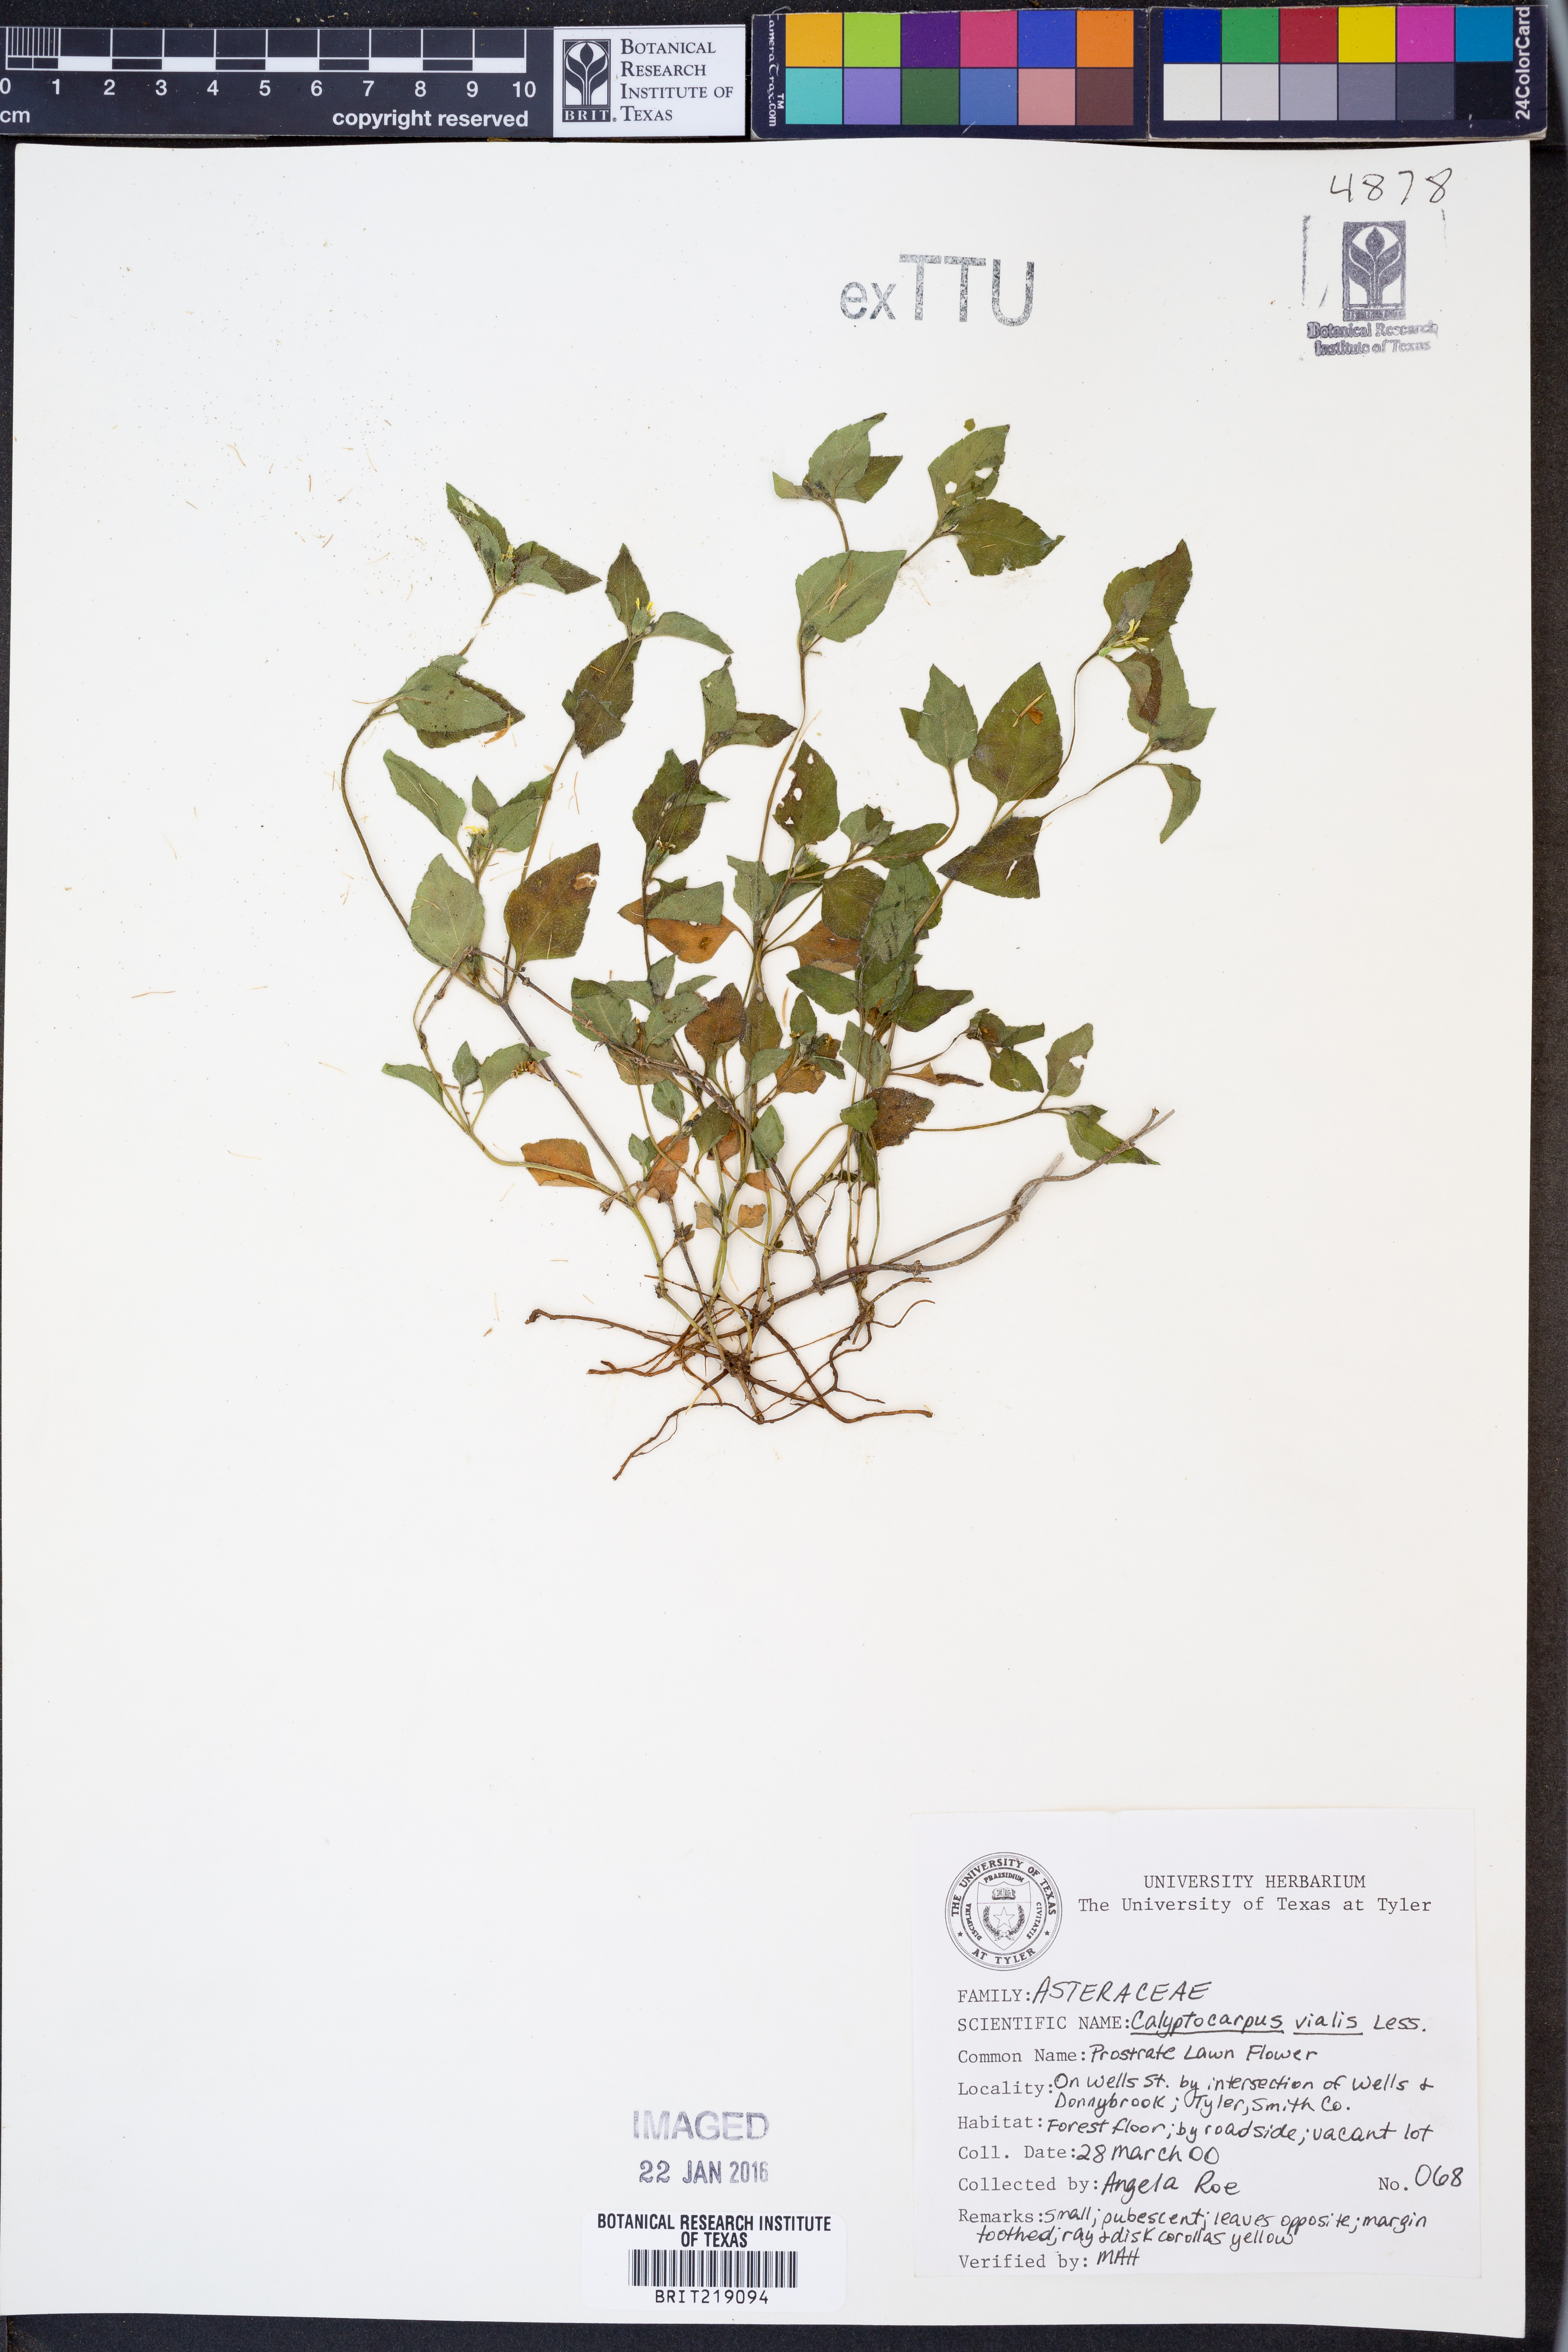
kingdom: Plantae
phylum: Tracheophyta
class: Magnoliopsida
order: Asterales
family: Asteraceae
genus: Calyptocarpus
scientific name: Calyptocarpus vialis
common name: Straggler daisy
